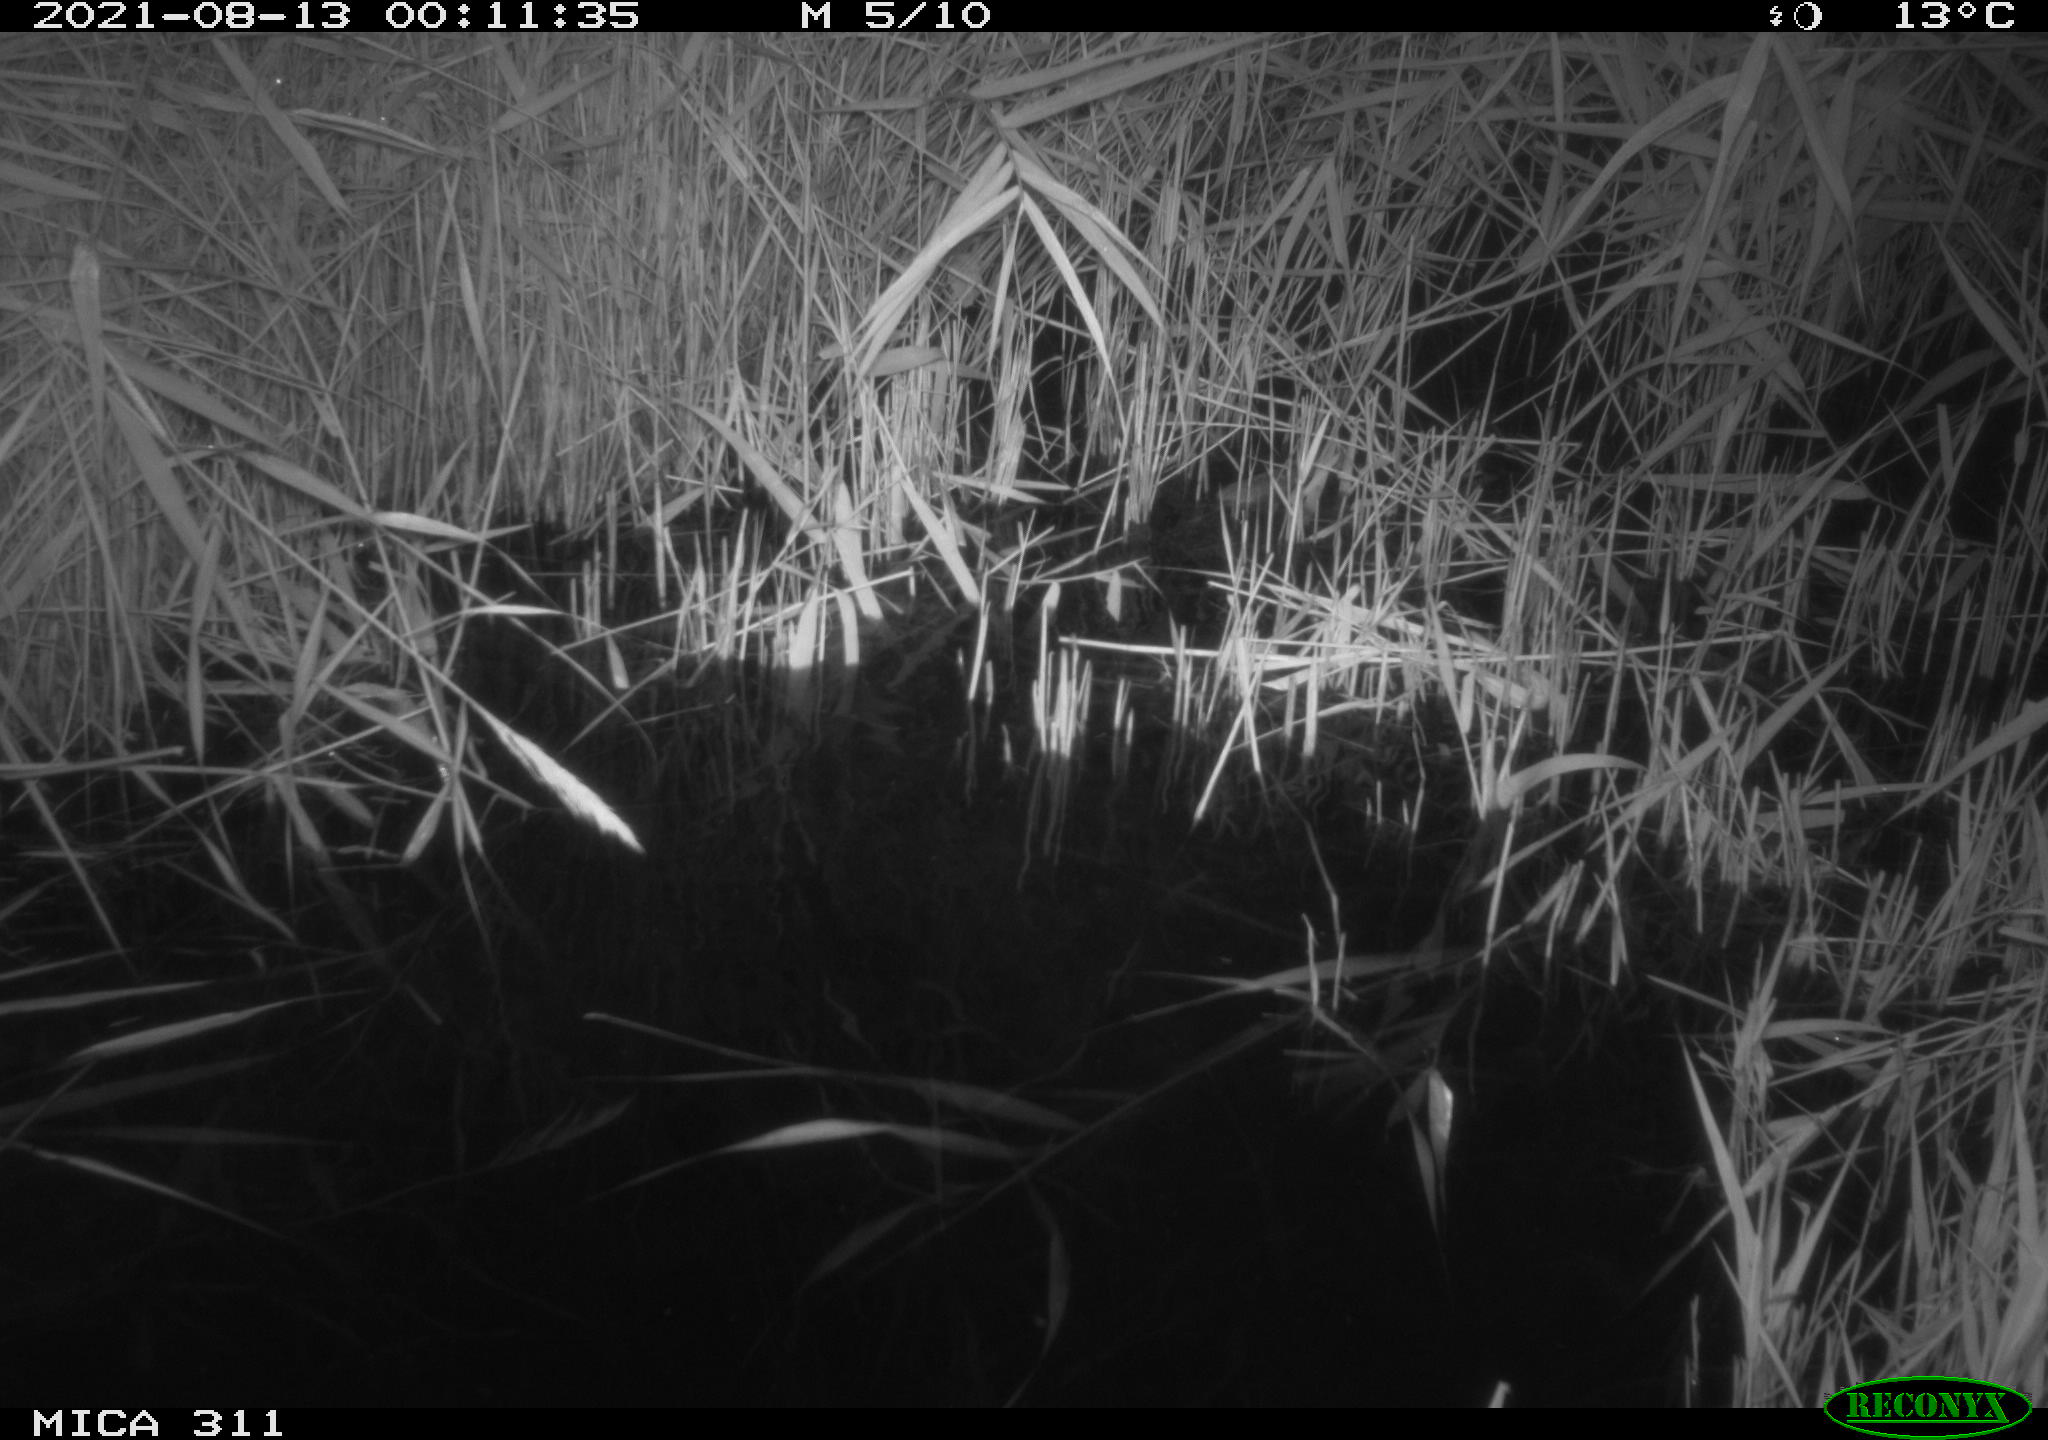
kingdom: Animalia
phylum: Chordata
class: Mammalia
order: Rodentia
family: Muridae
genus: Rattus
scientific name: Rattus norvegicus
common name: Brown rat
